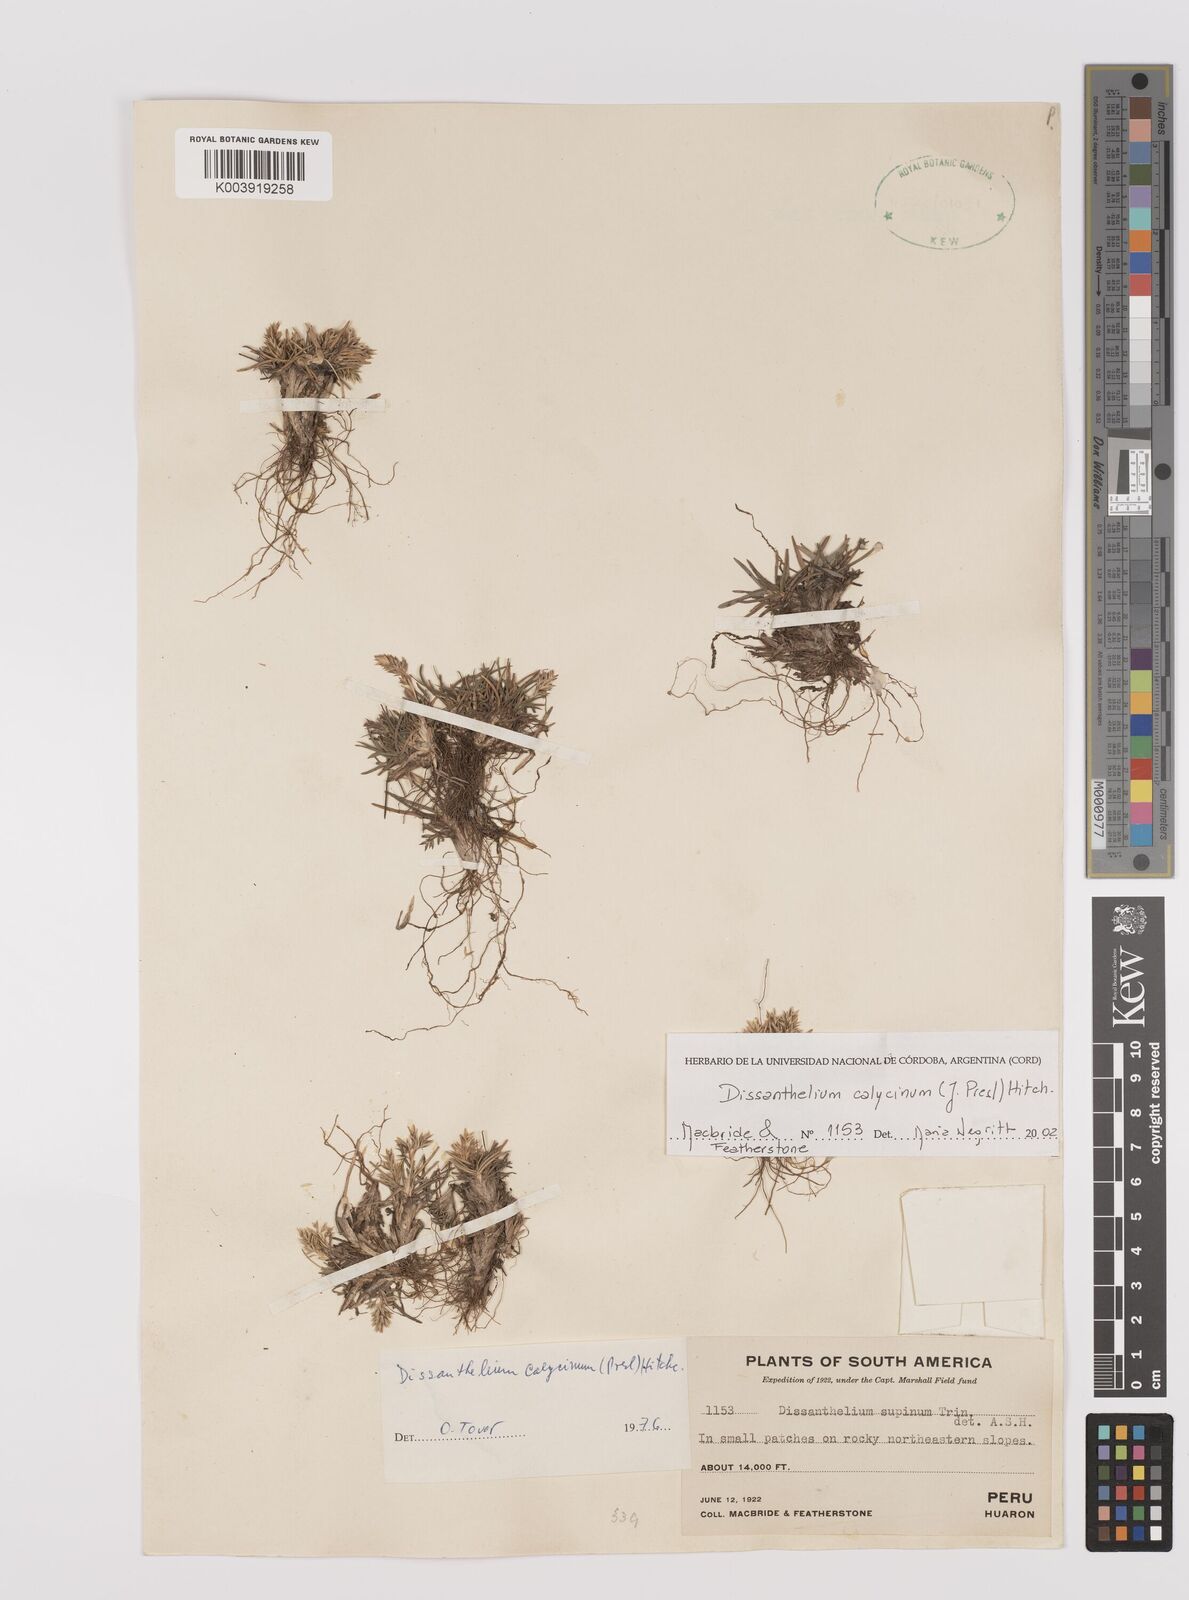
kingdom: Plantae
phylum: Tracheophyta
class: Liliopsida
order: Poales
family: Poaceae
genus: Poa
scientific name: Poa calycina
